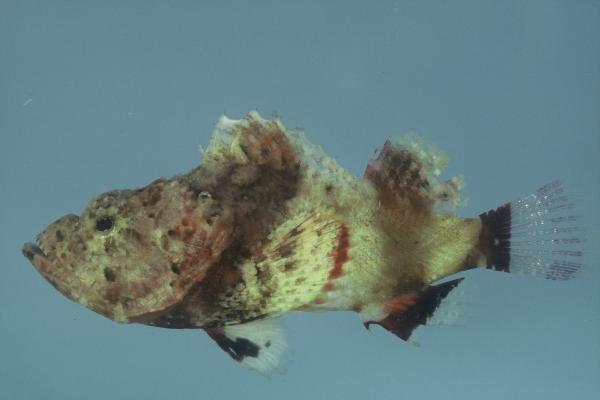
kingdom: Animalia
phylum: Chordata
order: Scorpaeniformes
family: Scorpaenidae
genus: Scorpaenopsis
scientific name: Scorpaenopsis gibbosa
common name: Humpback scorpionfish
